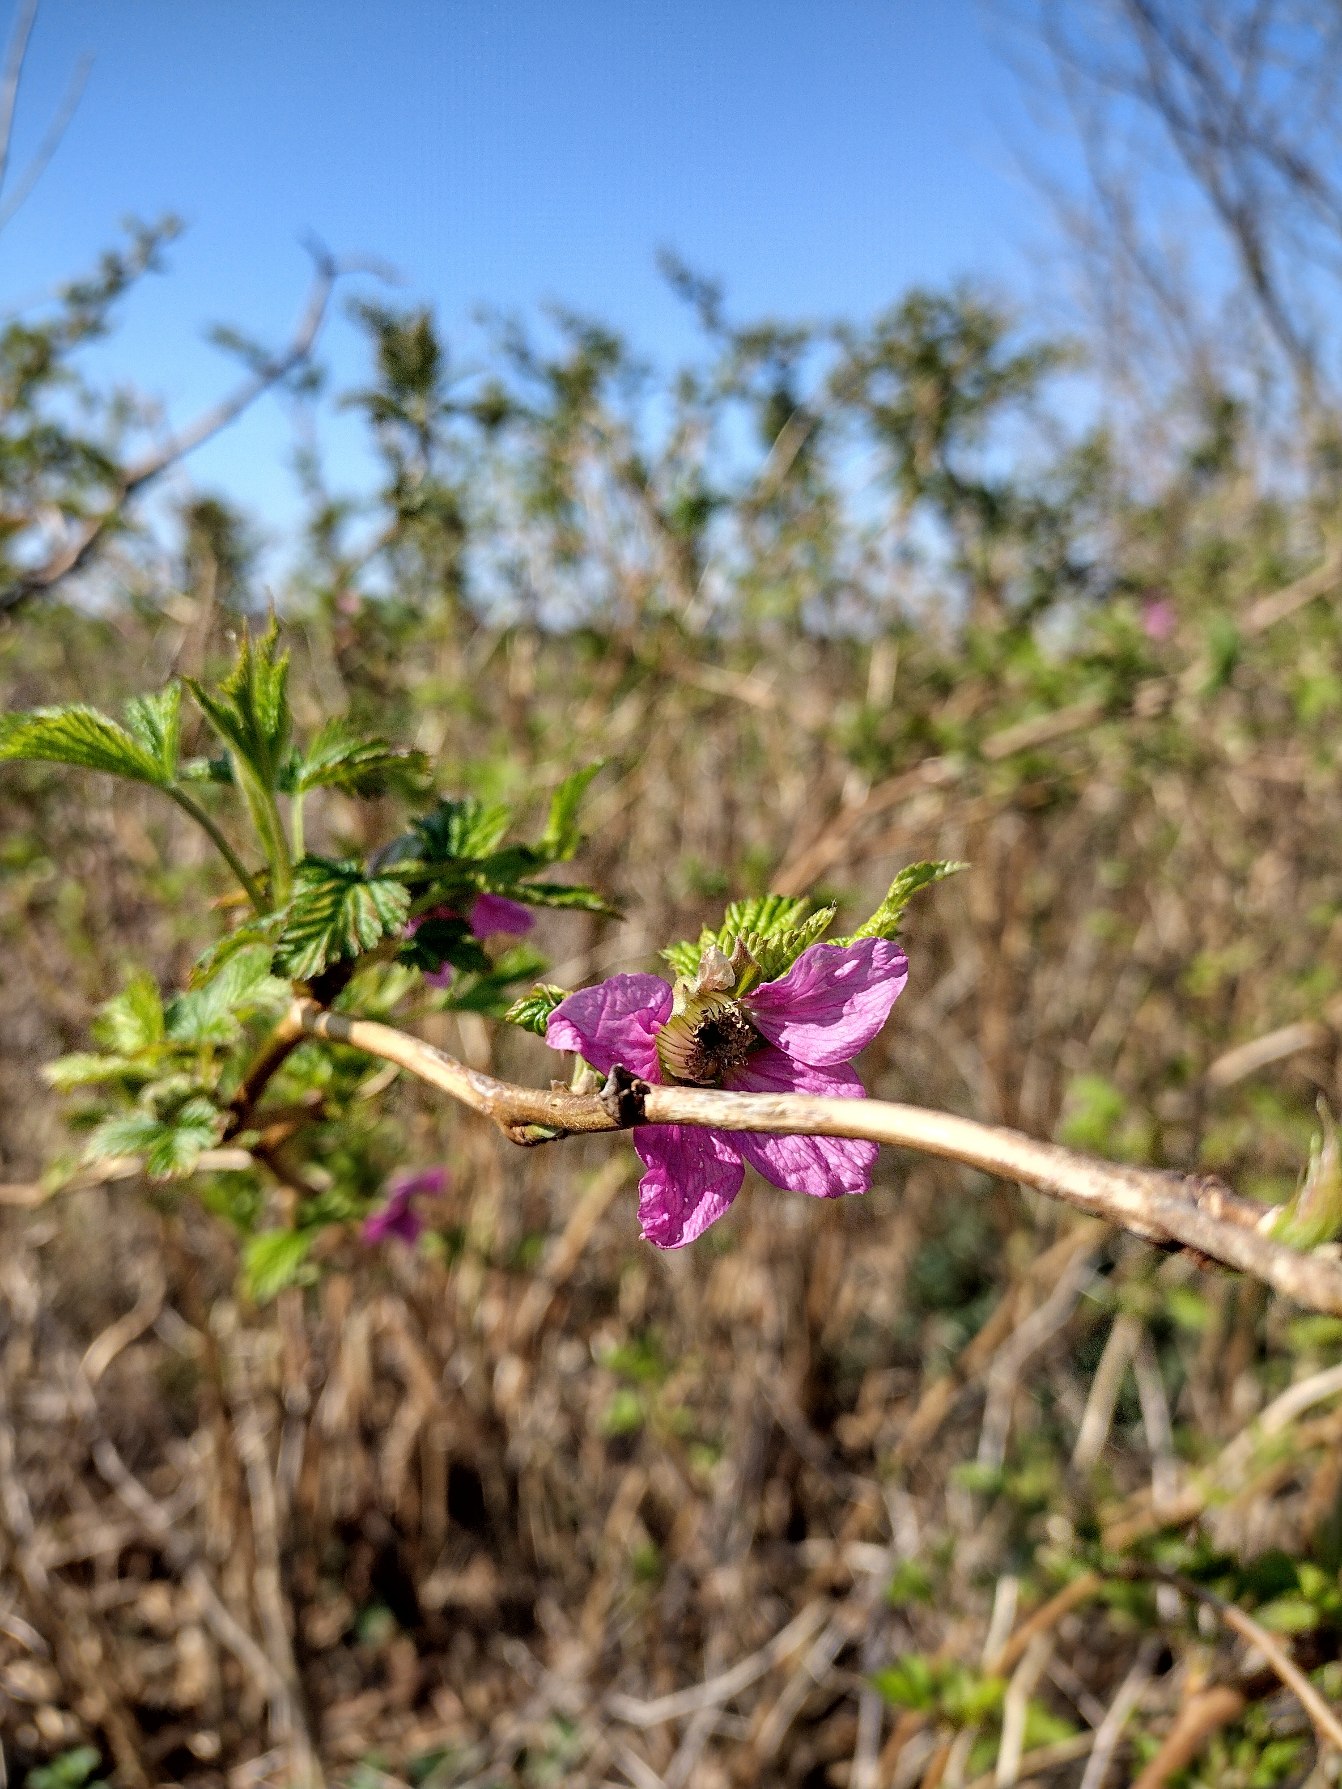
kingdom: Plantae
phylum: Tracheophyta
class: Magnoliopsida
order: Rosales
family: Rosaceae
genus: Rubus
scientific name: Rubus spectabilis
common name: Laksebær
